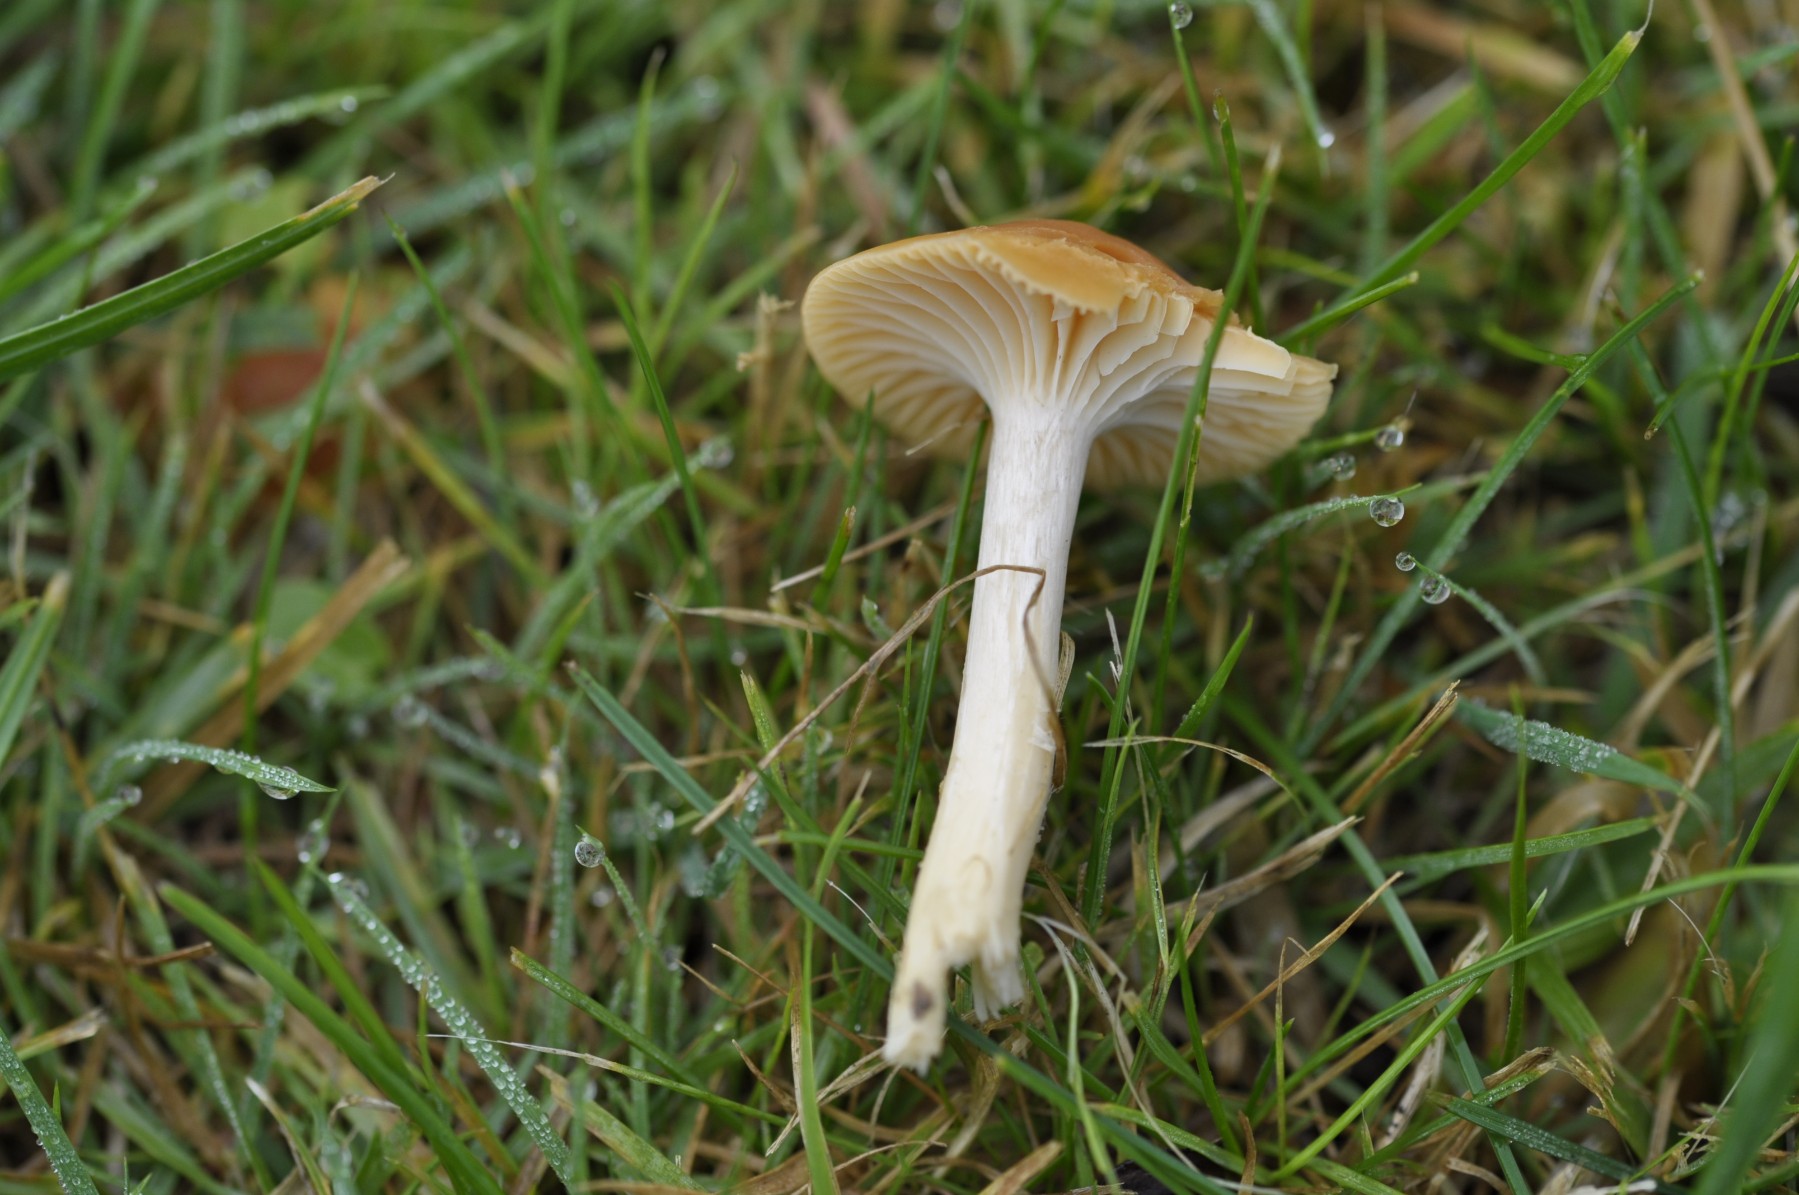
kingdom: Fungi
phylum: Basidiomycota
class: Agaricomycetes
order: Agaricales
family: Hygrophoraceae
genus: Cuphophyllus
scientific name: Cuphophyllus pratensis
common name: eng-vokshat
